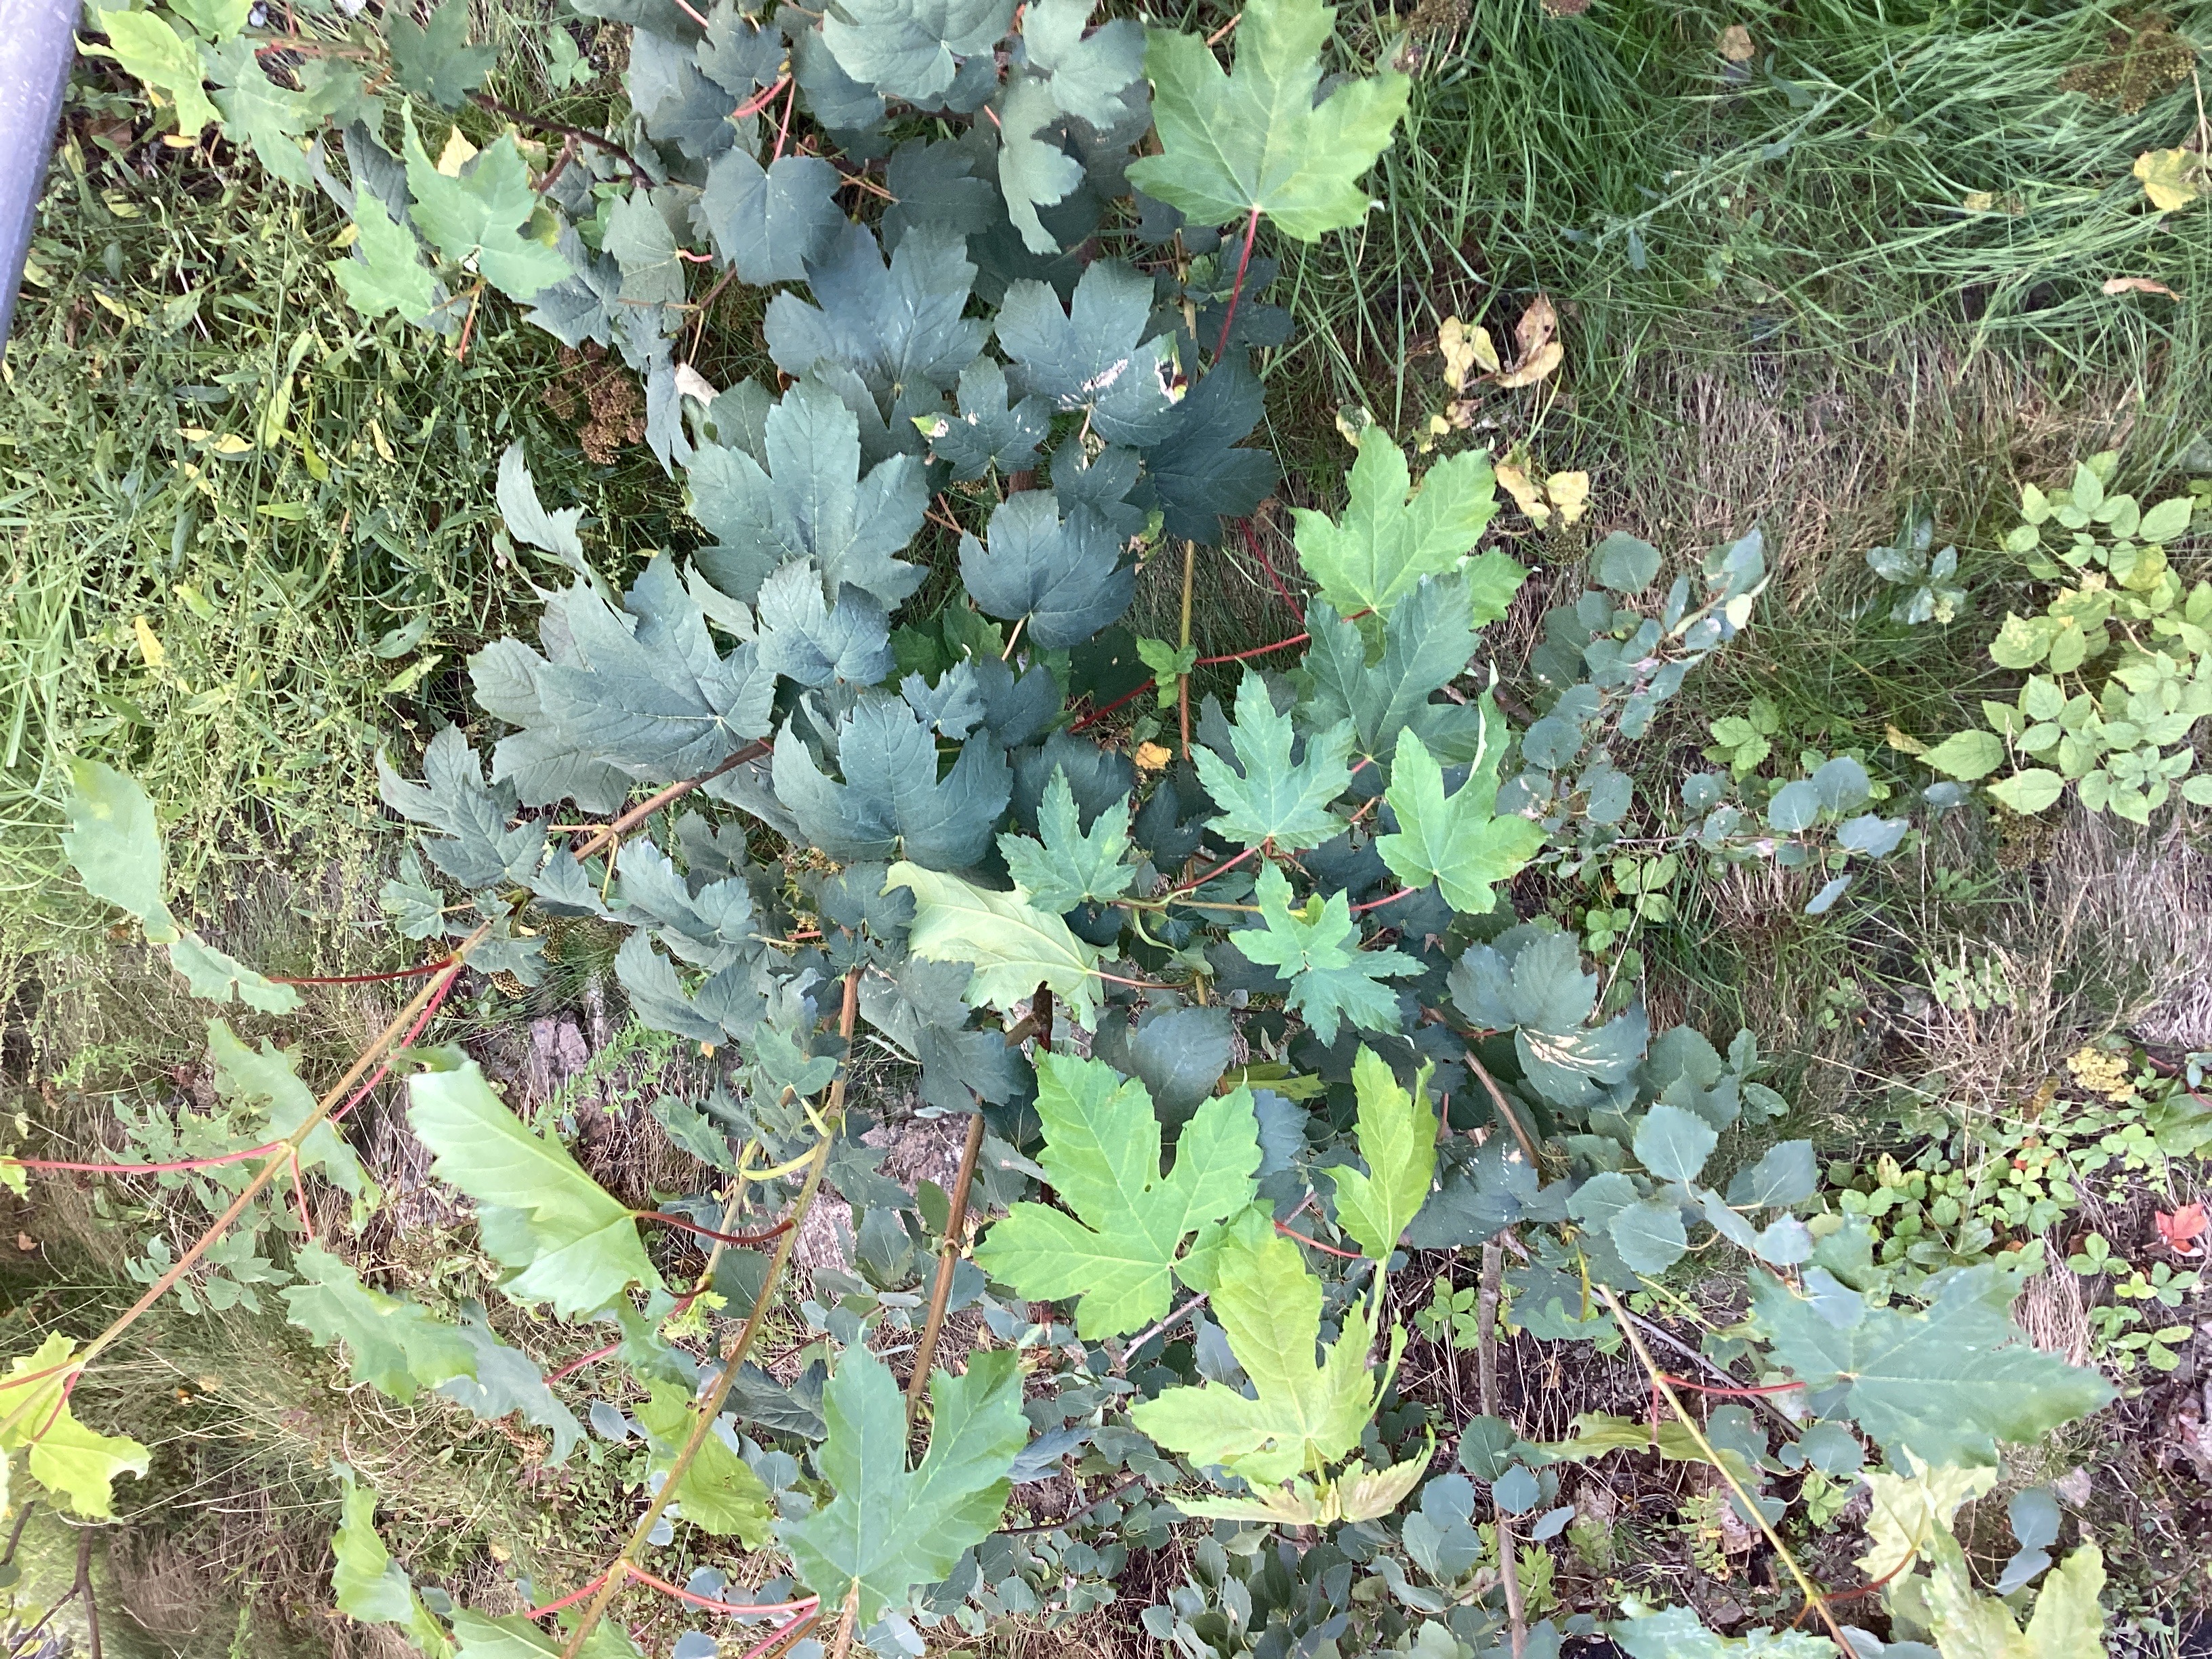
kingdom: Plantae
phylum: Tracheophyta
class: Magnoliopsida
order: Sapindales
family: Sapindaceae
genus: Acer
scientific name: Acer pseudoplatanus
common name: platanlønn
